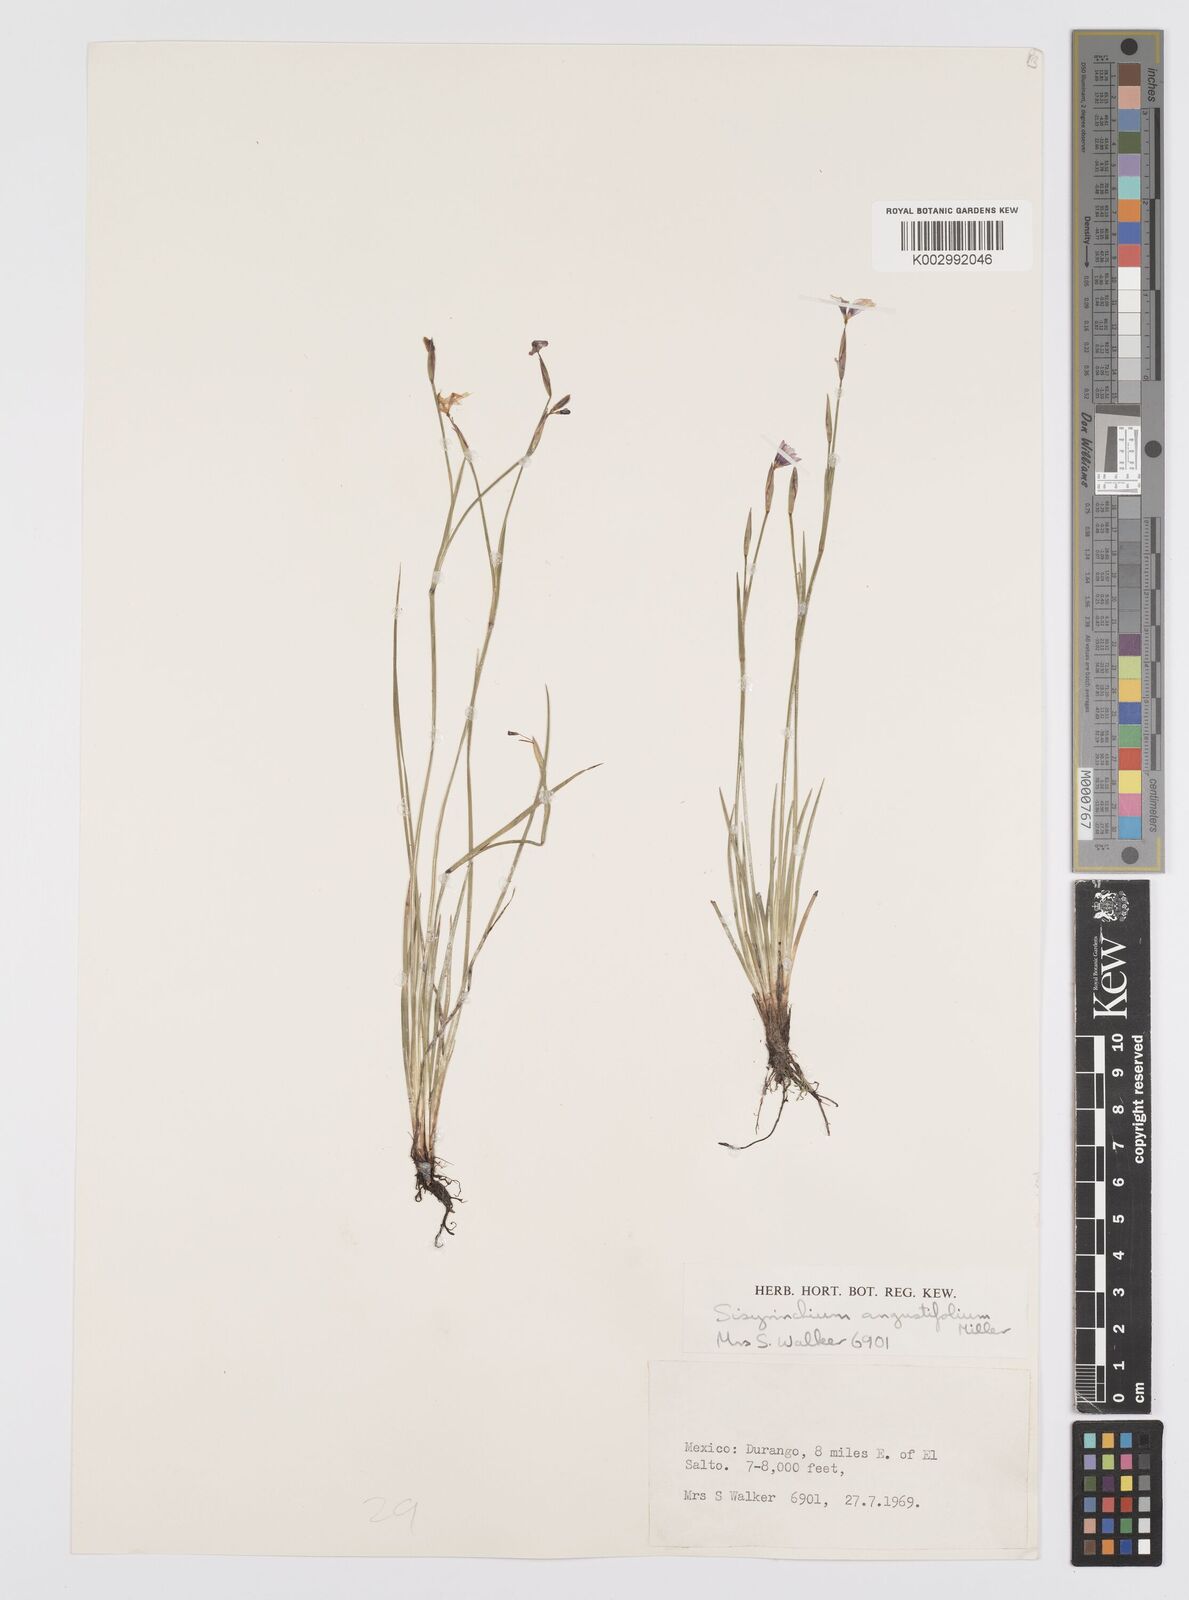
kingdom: Plantae
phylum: Tracheophyta
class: Liliopsida
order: Asparagales
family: Iridaceae
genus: Sisyrinchium
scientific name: Sisyrinchium
